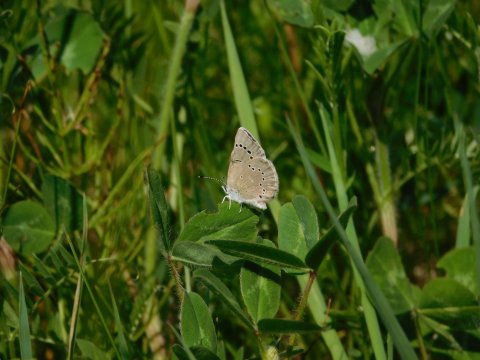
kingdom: Animalia
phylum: Arthropoda
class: Insecta
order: Lepidoptera
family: Lycaenidae
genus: Glaucopsyche
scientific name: Glaucopsyche lygdamus
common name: Silvery Blue
